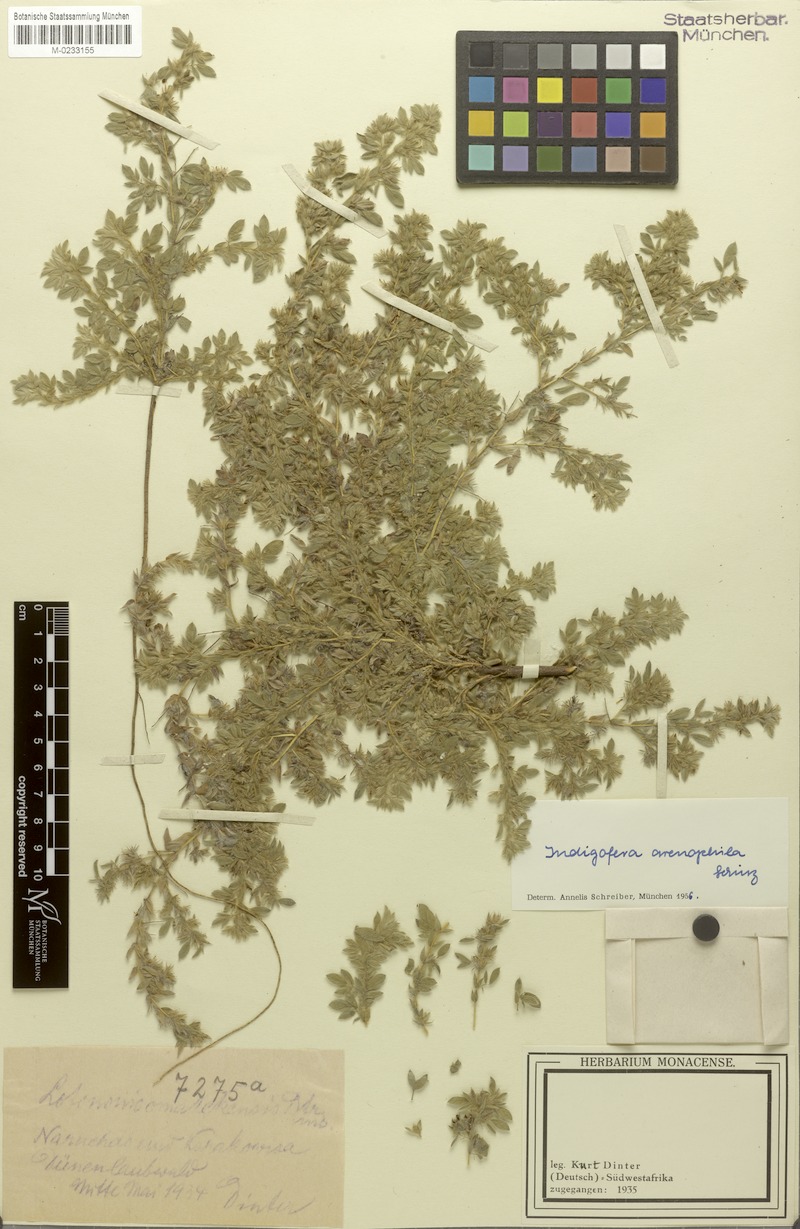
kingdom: Plantae
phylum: Tracheophyta
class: Magnoliopsida
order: Fabales
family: Fabaceae
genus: Indigofera
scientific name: Indigofera arenophila
